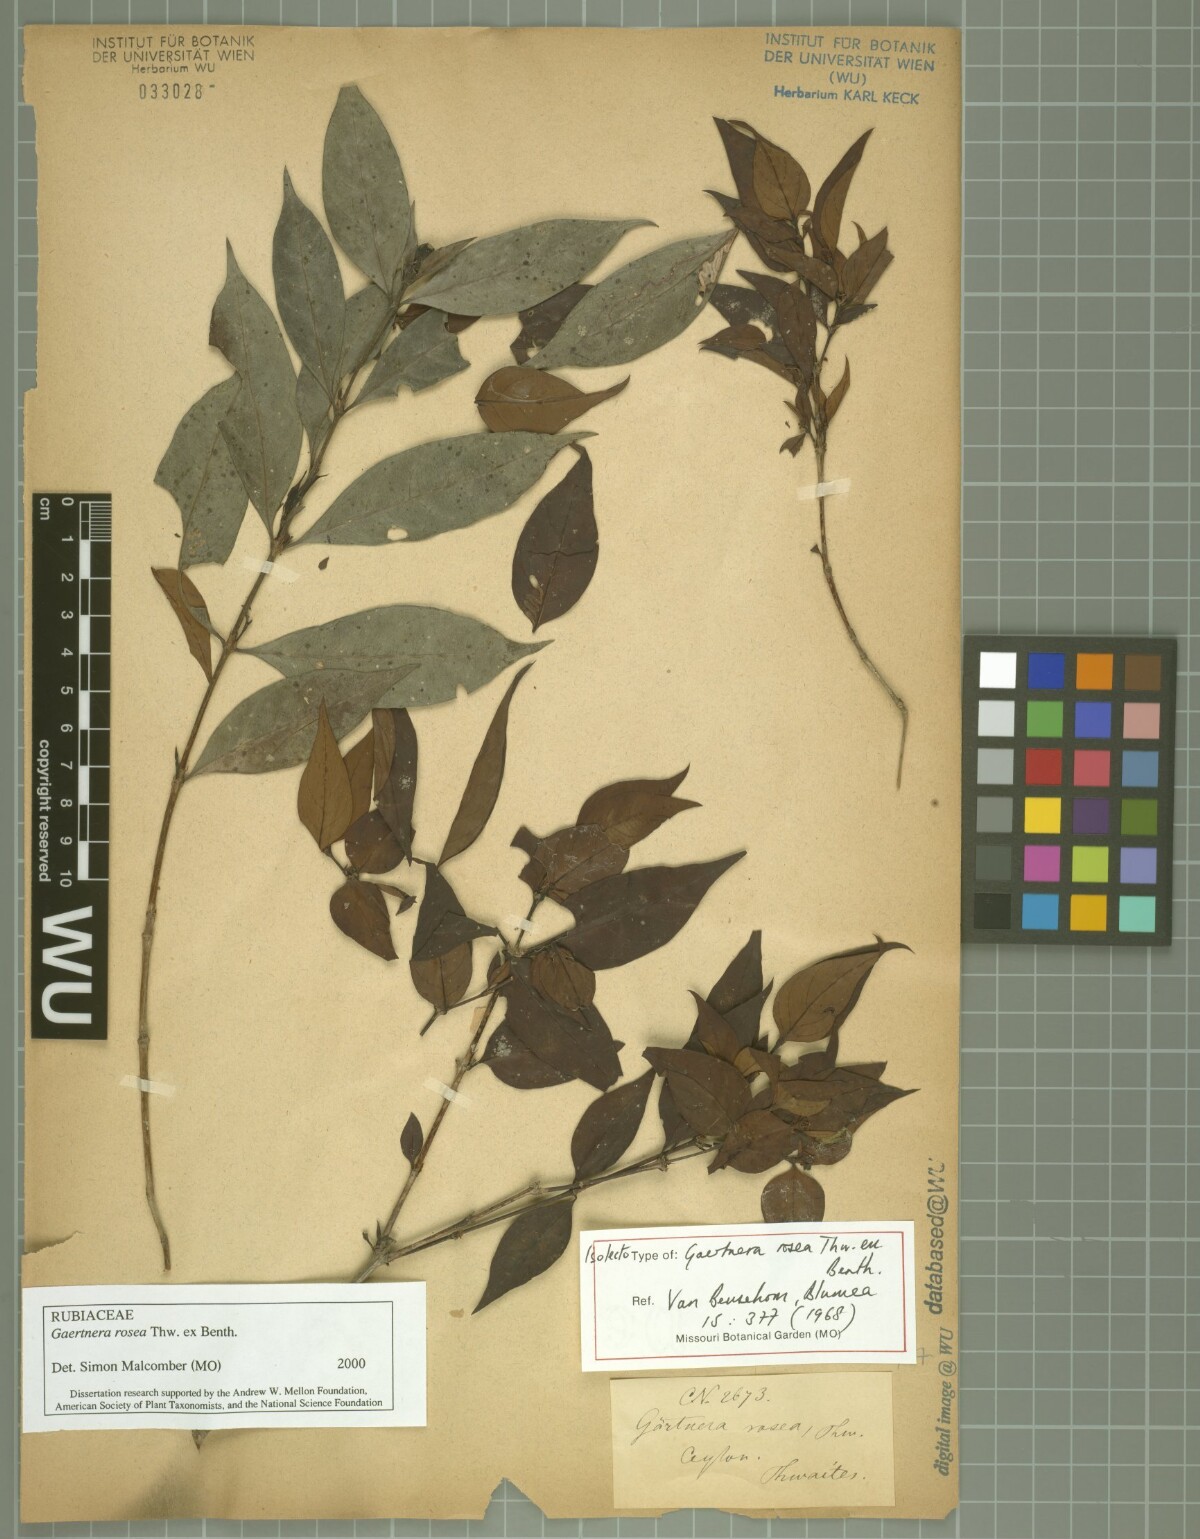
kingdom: Plantae
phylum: Tracheophyta
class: Magnoliopsida
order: Gentianales
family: Rubiaceae
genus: Gaertnera
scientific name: Gaertnera rosea
